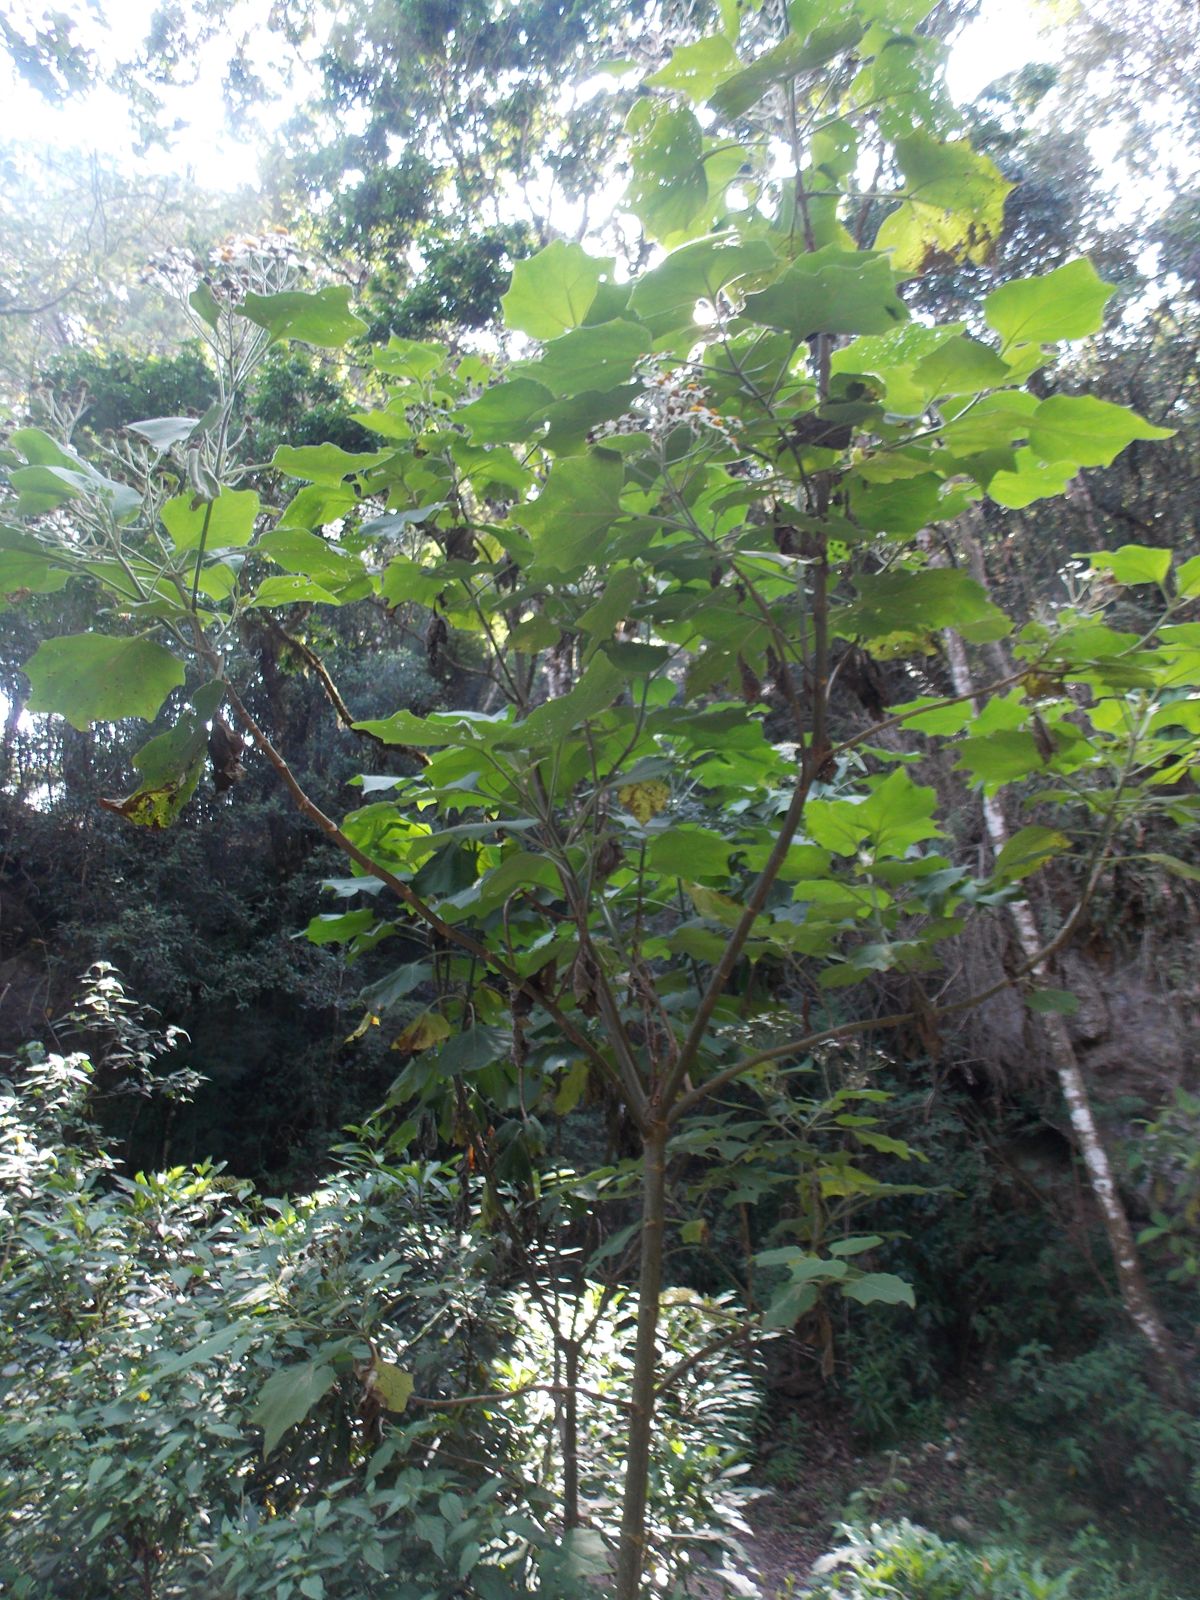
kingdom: Plantae
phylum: Tracheophyta
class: Magnoliopsida
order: Asterales
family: Asteraceae
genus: Podachaenium
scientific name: Podachaenium eminens
